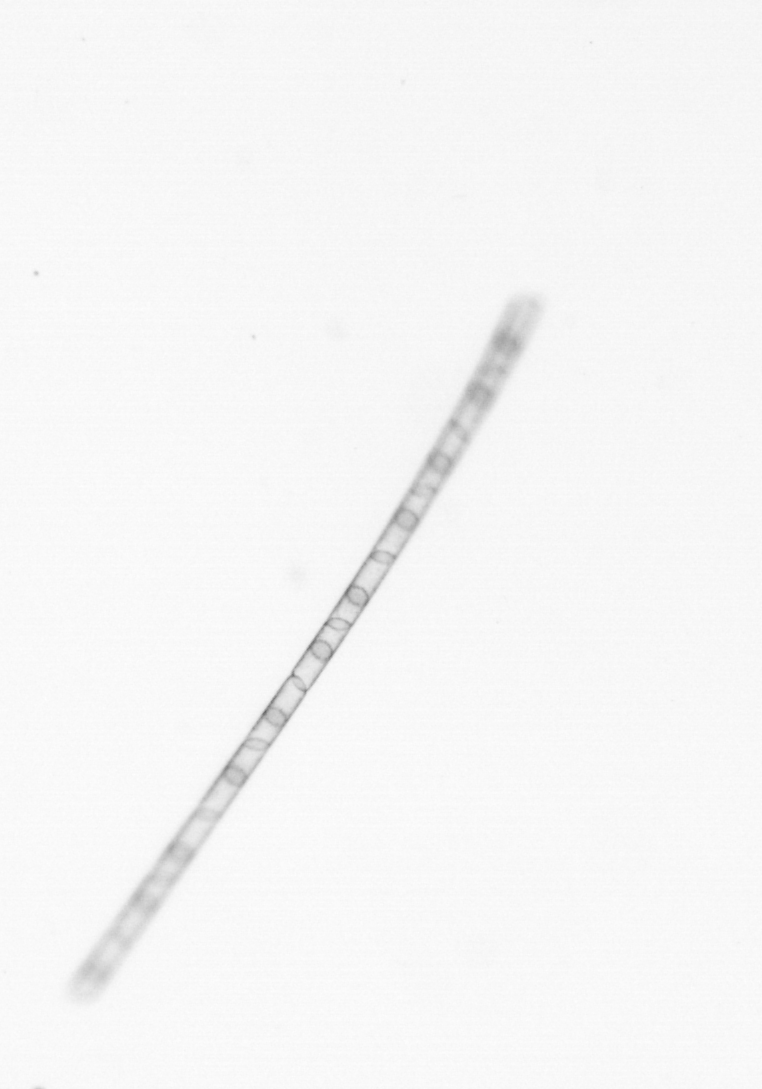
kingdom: Chromista
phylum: Ochrophyta
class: Bacillariophyceae
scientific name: Bacillariophyceae
